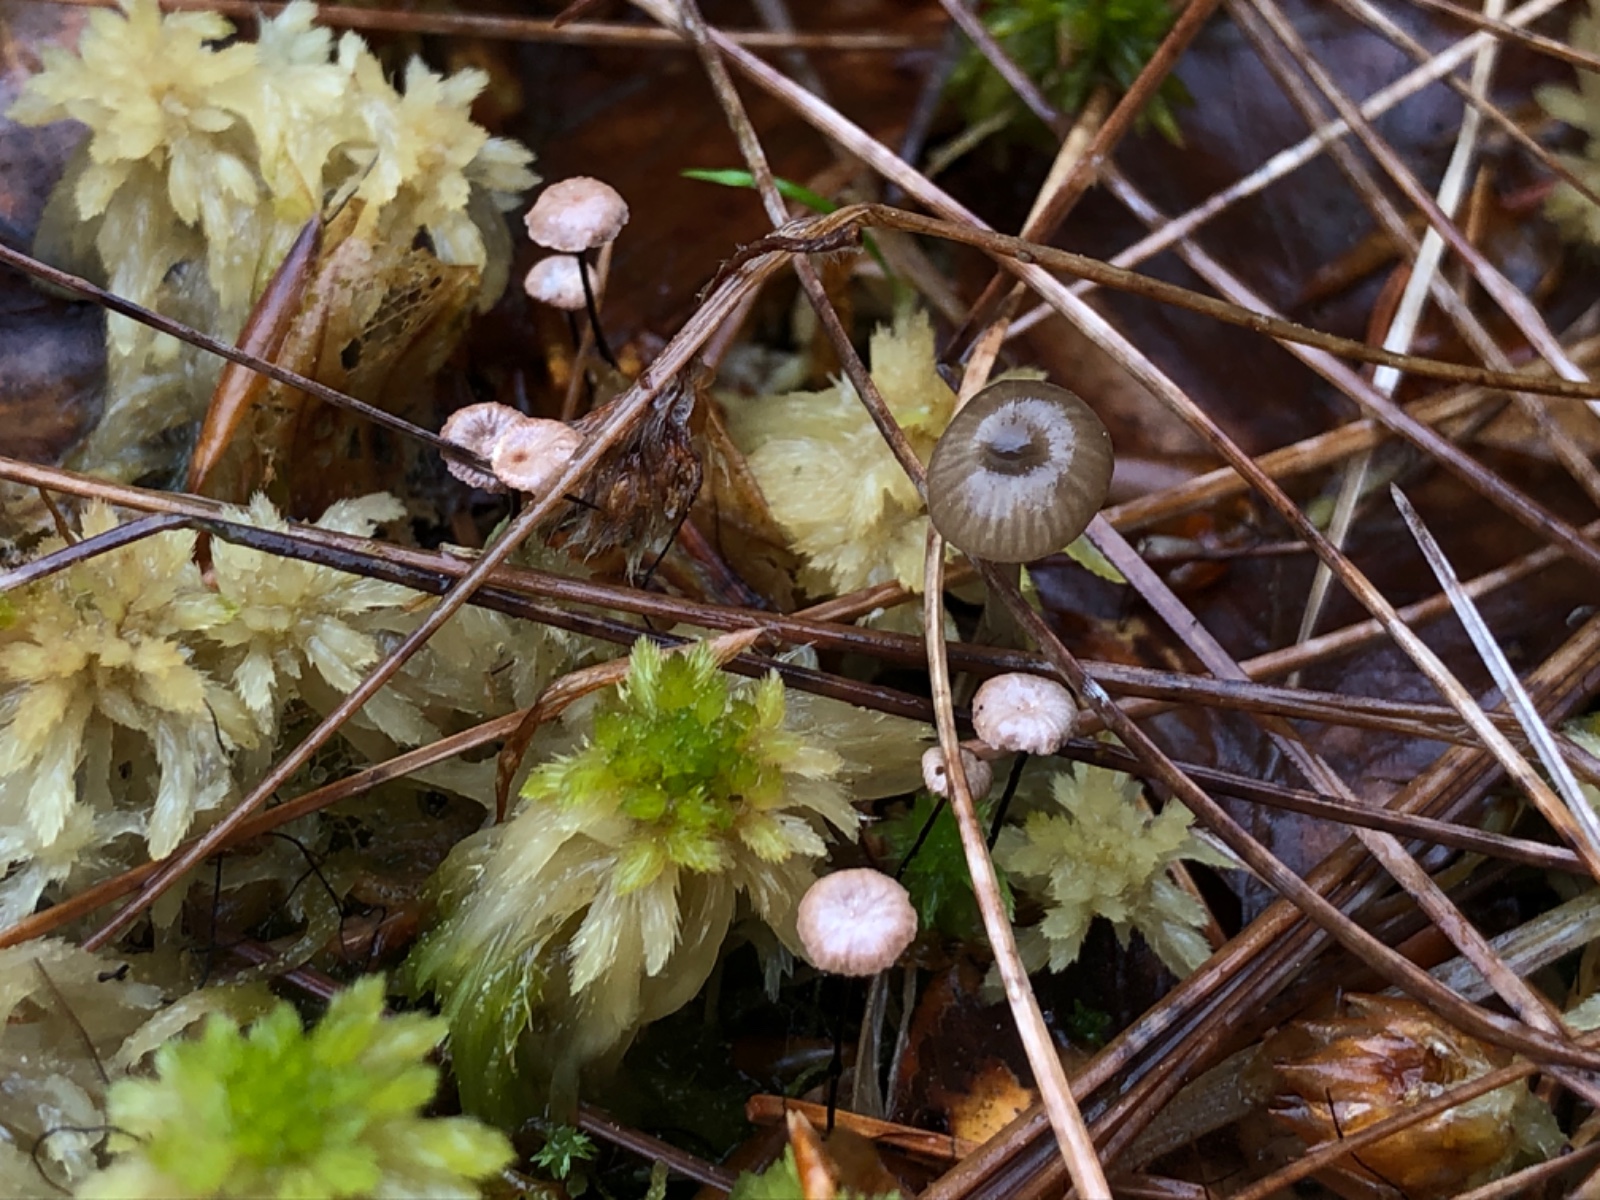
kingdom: Fungi
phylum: Basidiomycota
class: Agaricomycetes
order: Agaricales
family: Omphalotaceae
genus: Gymnopus
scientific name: Gymnopus androsaceus
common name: trådstokket fladhat
